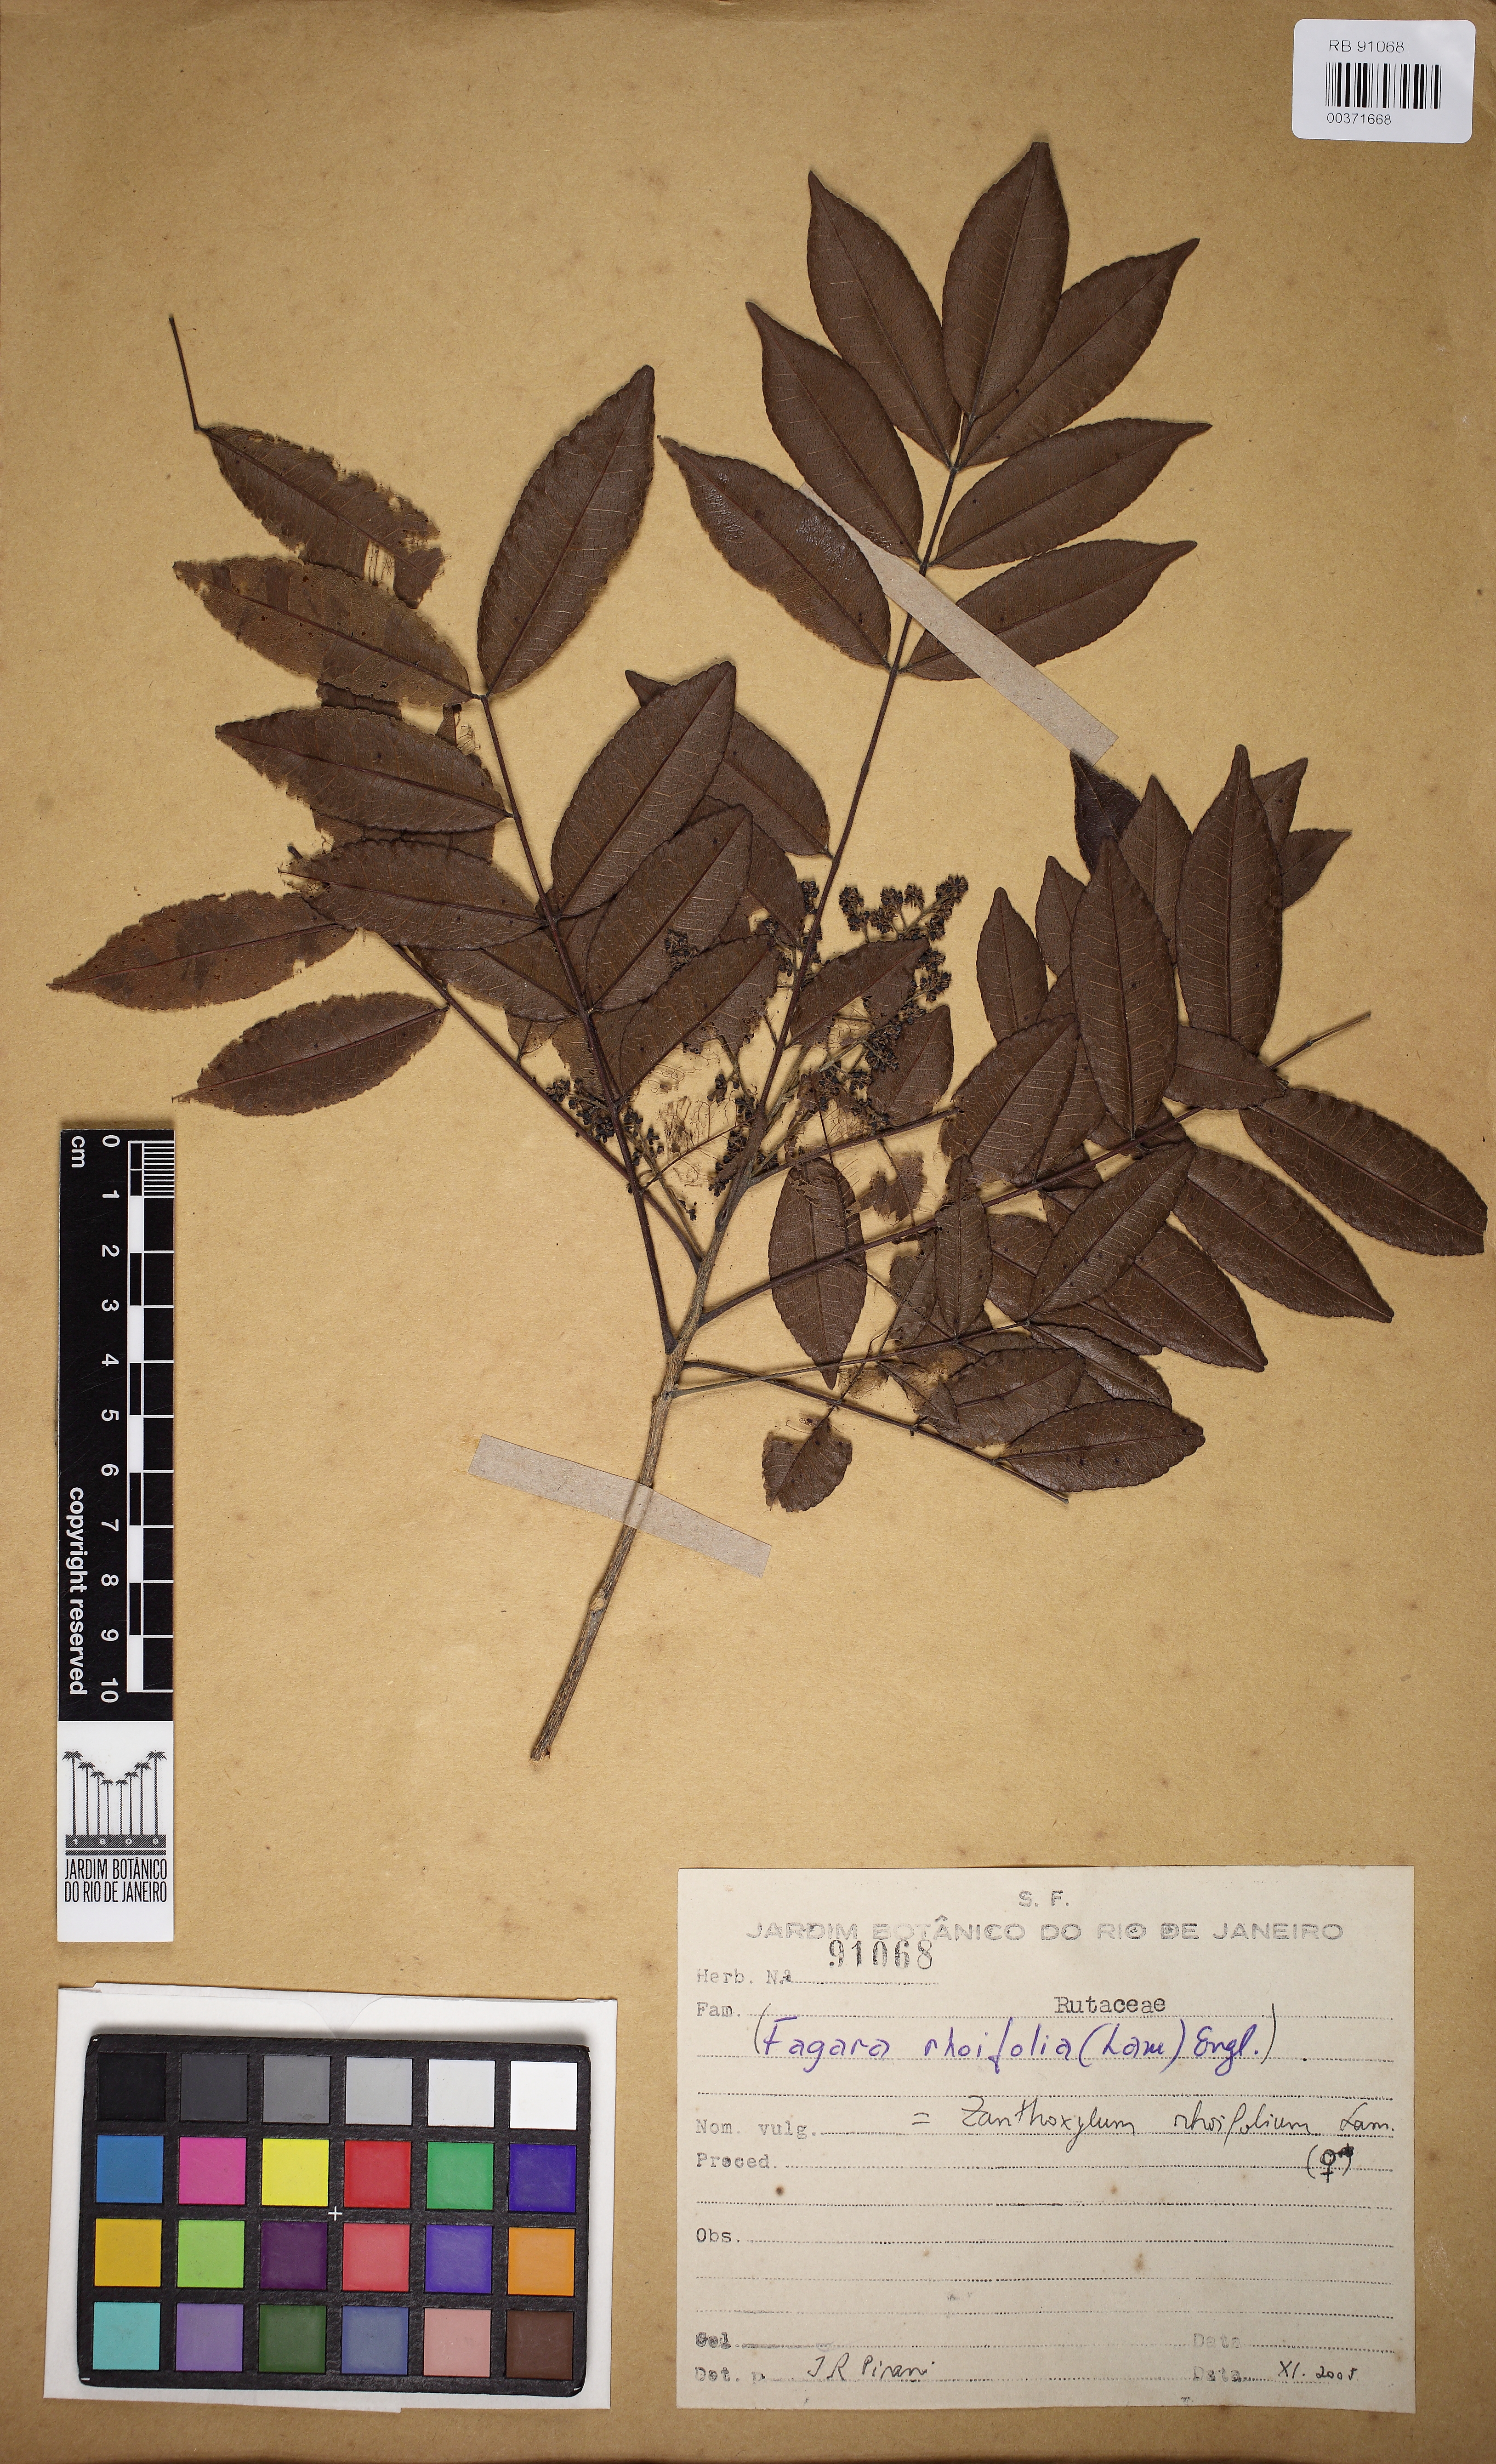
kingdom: Plantae
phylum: Tracheophyta
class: Magnoliopsida
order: Sapindales
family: Rutaceae
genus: Zanthoxylum
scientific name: Zanthoxylum rhoifolium
